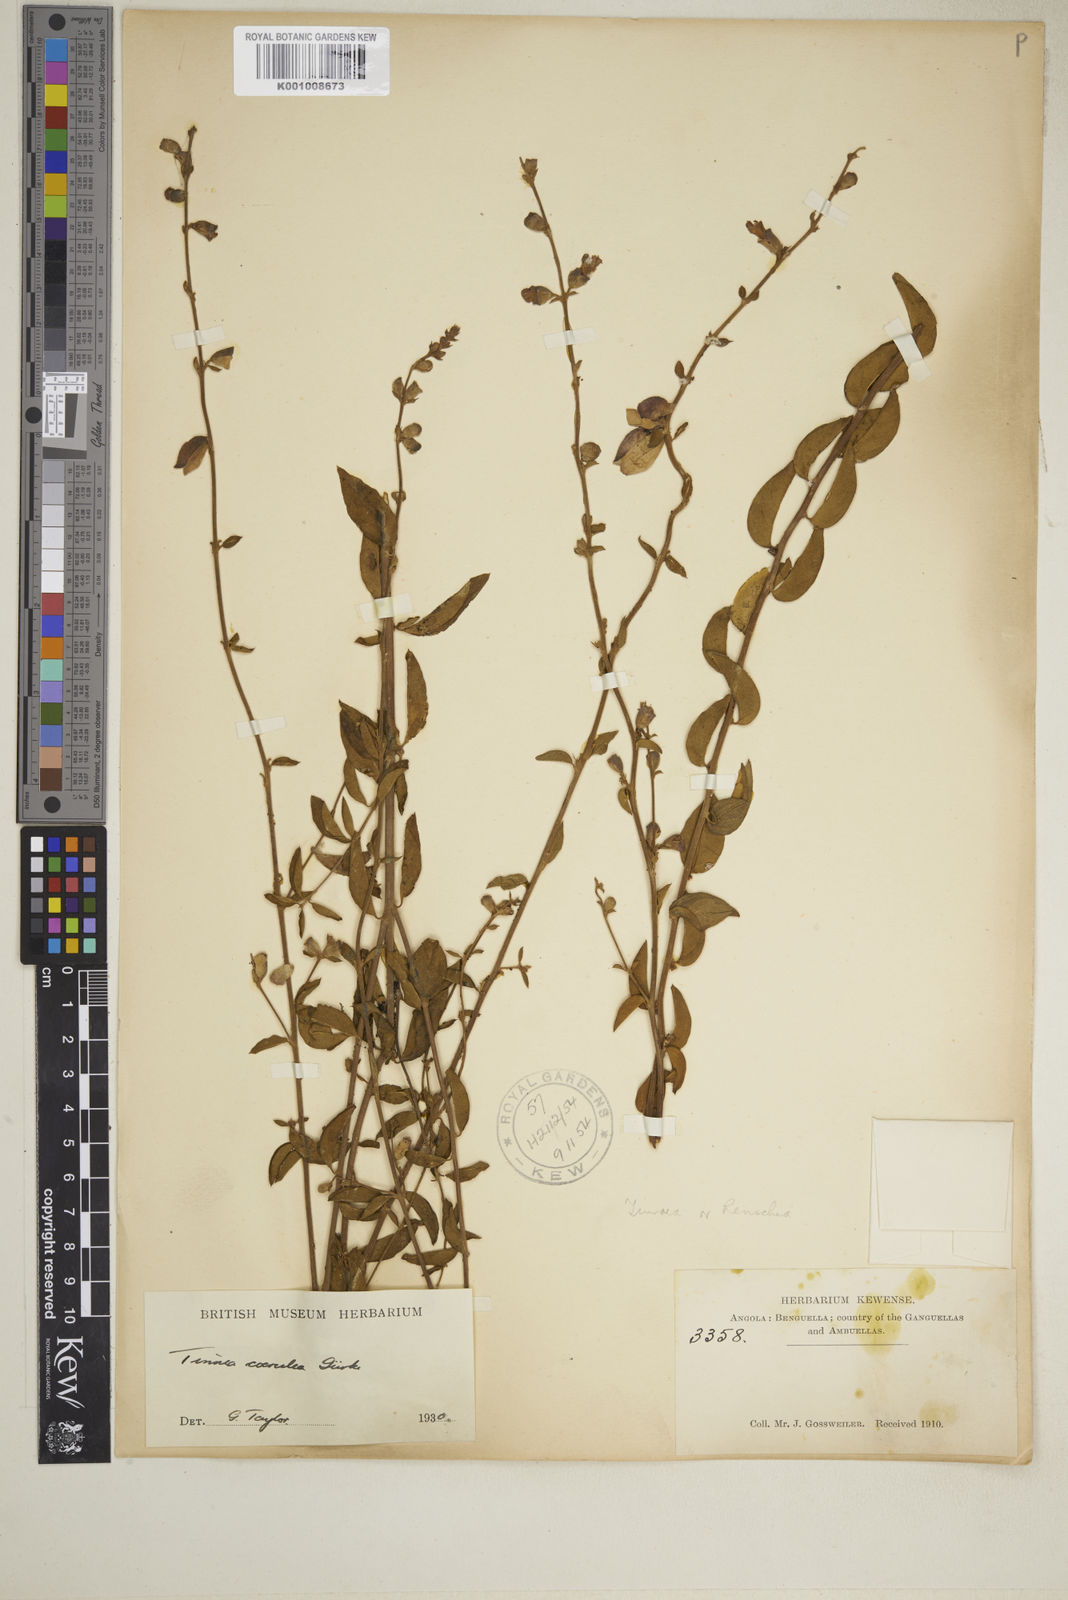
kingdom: Plantae
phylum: Tracheophyta
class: Magnoliopsida
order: Lamiales
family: Lamiaceae
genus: Tinnea
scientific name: Tinnea
